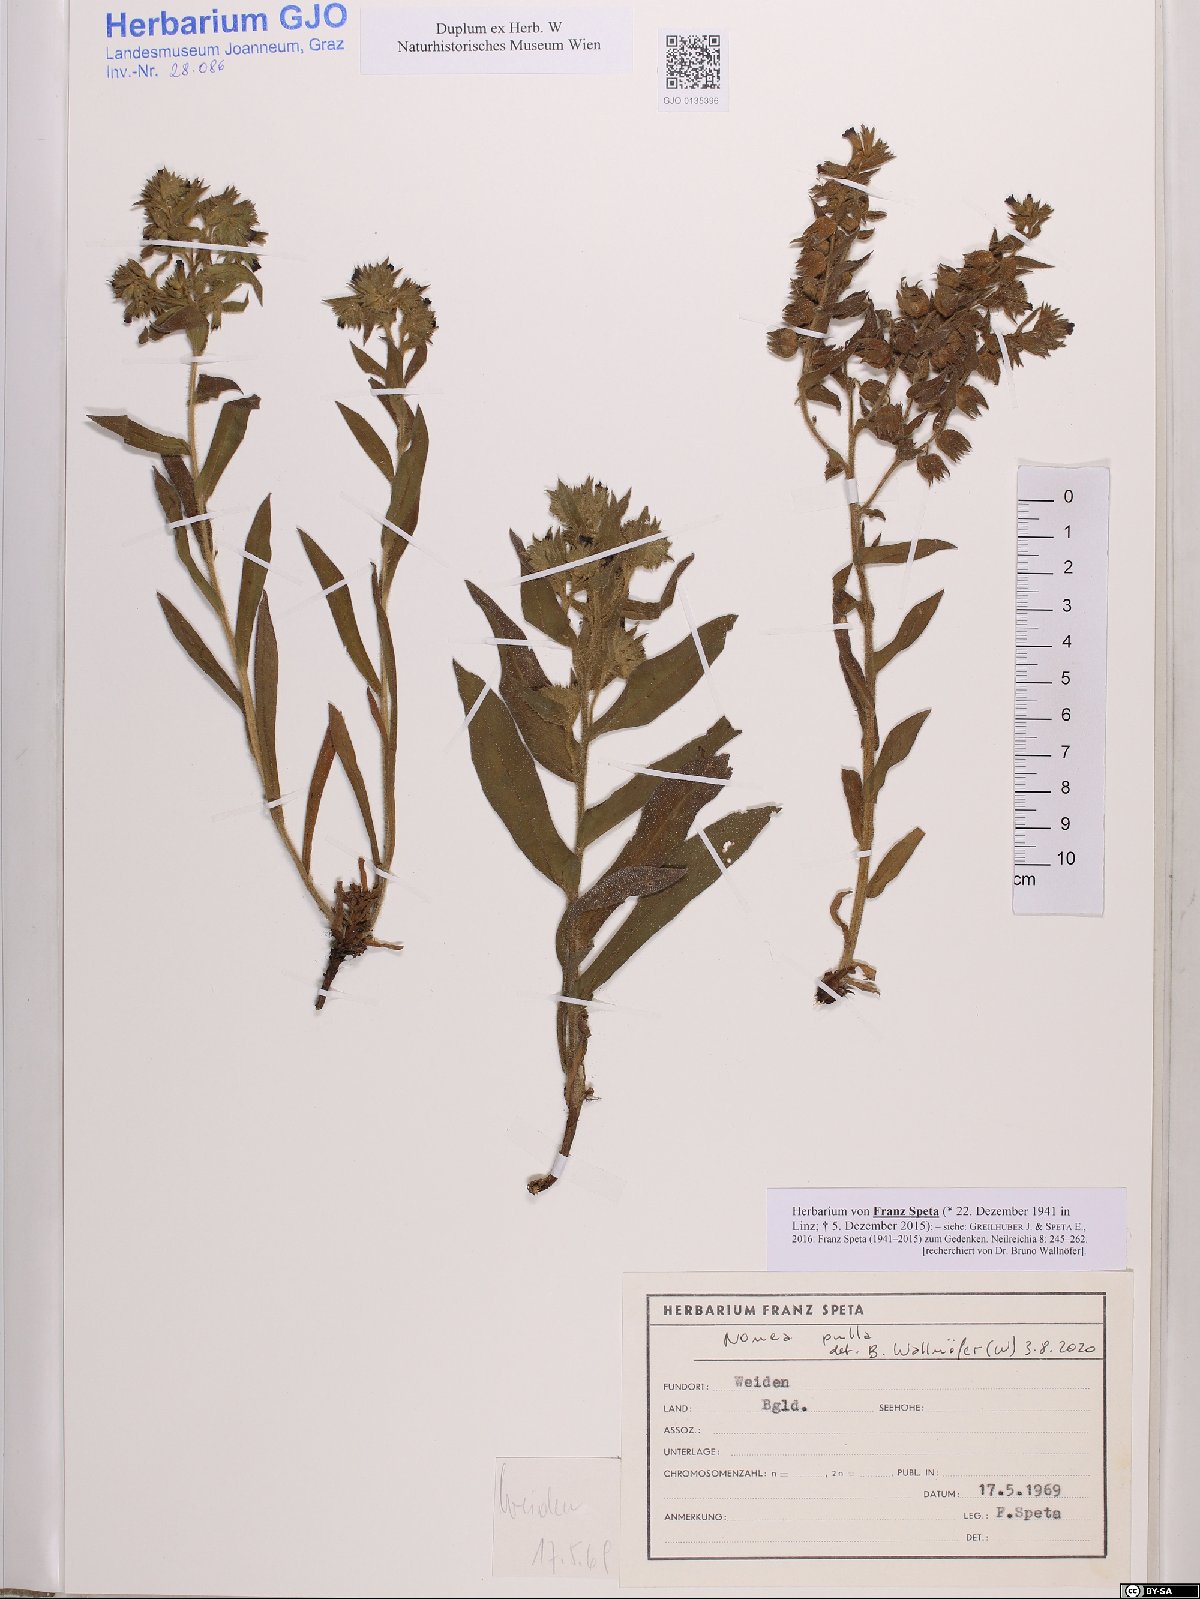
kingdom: Plantae
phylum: Tracheophyta
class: Magnoliopsida
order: Boraginales
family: Boraginaceae
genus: Nonea
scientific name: Nonea pulla
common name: Brown nonea
